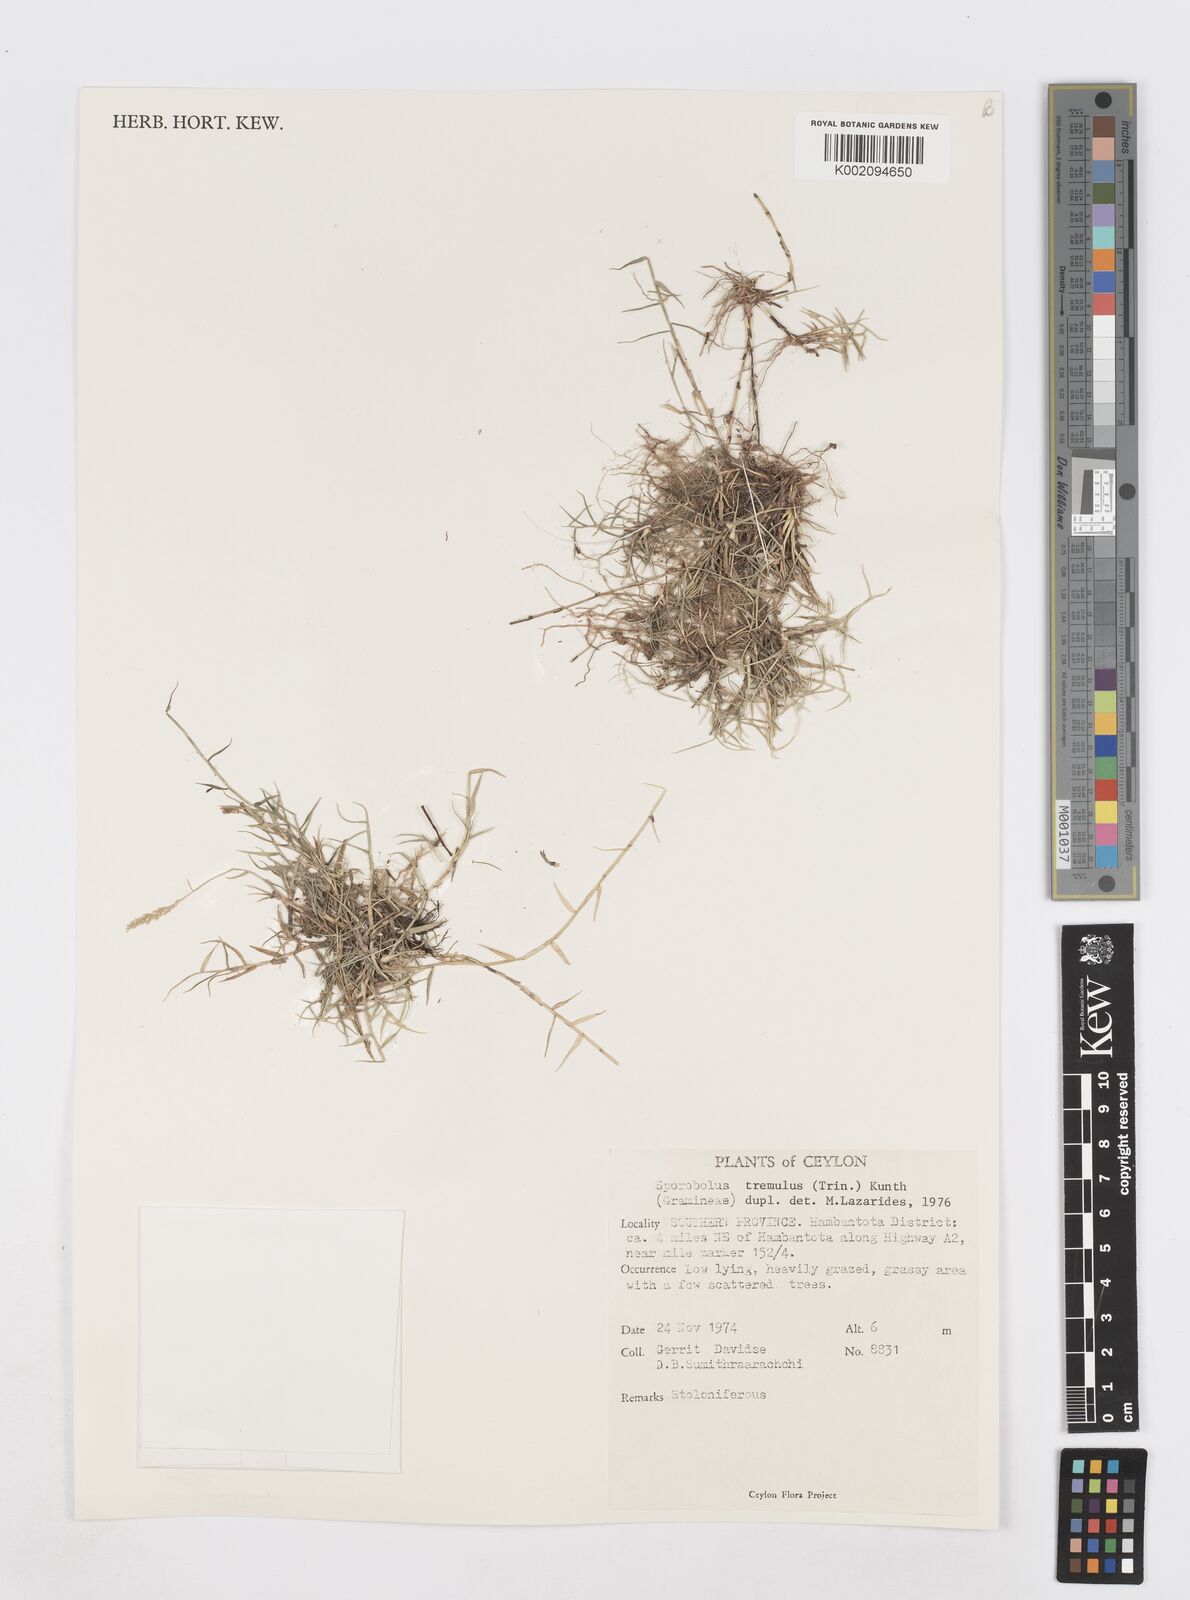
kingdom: Plantae
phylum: Tracheophyta
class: Liliopsida
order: Poales
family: Poaceae
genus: Sporobolus
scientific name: Sporobolus virginicus
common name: Beach dropseed
